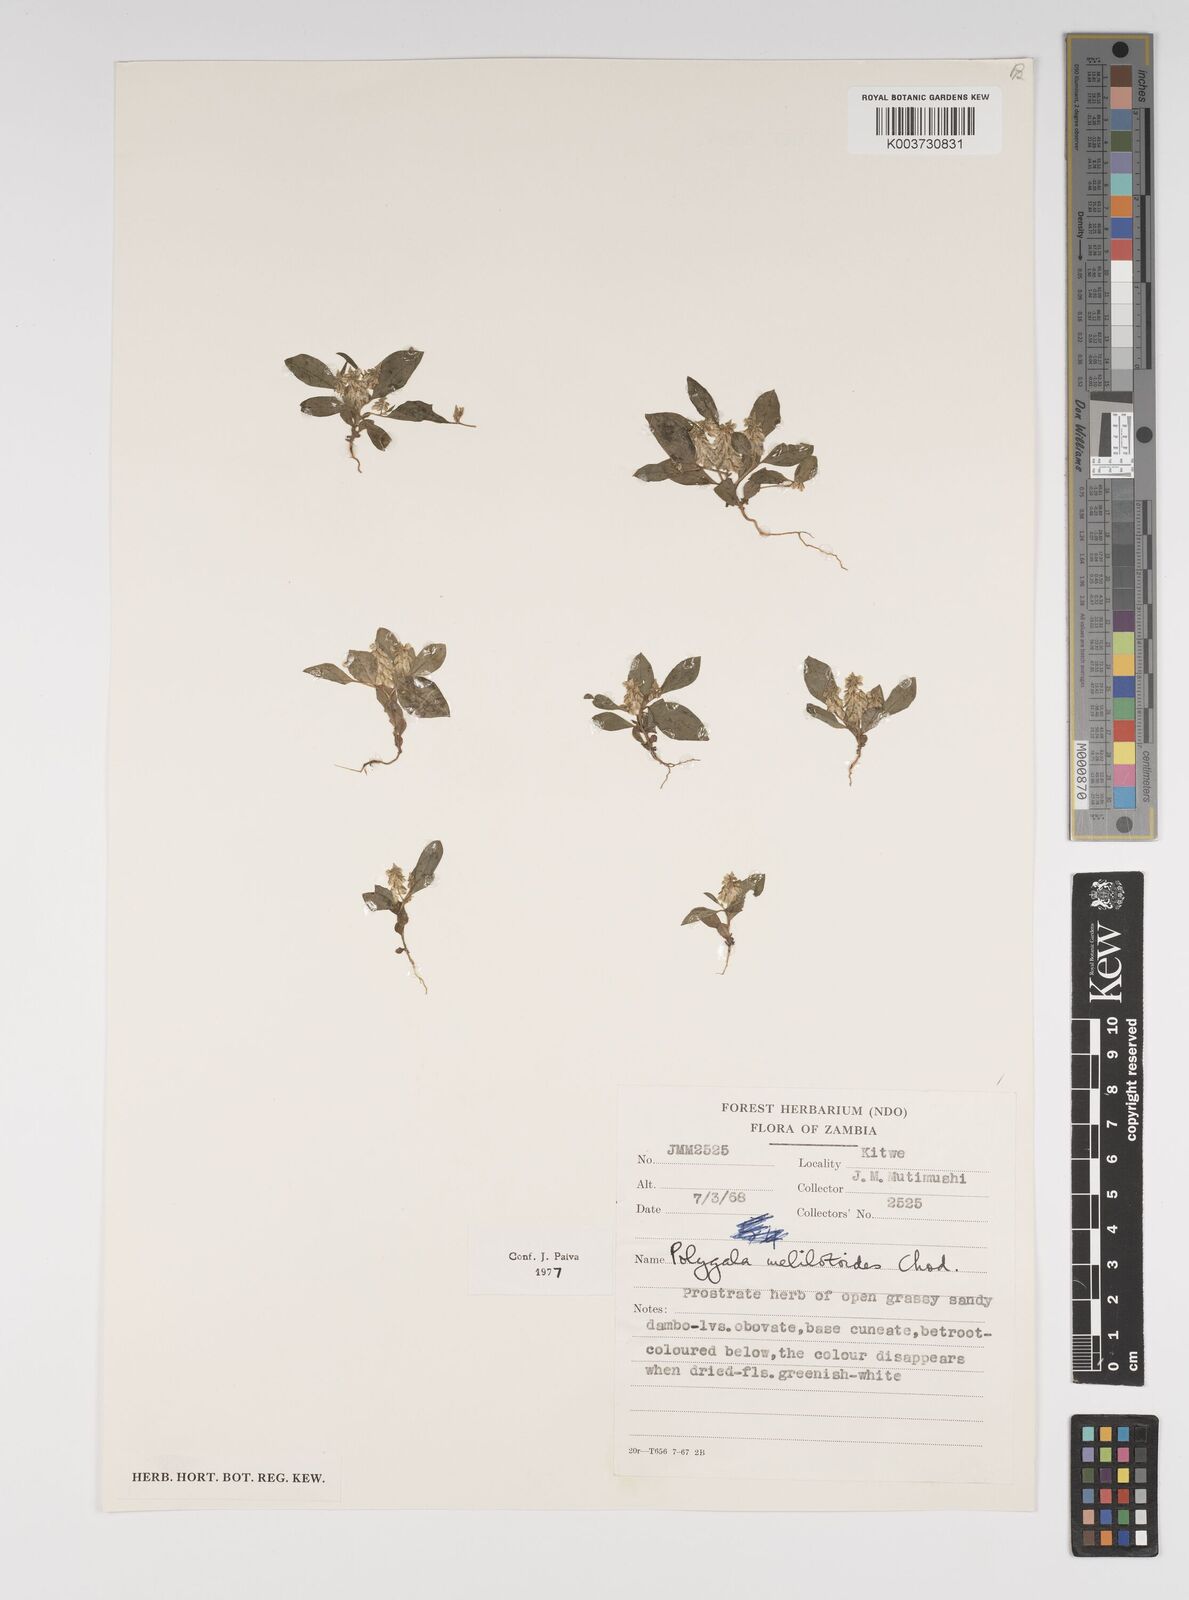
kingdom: Plantae
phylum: Tracheophyta
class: Magnoliopsida
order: Fabales
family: Polygalaceae
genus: Polygala
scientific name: Polygala melilotoides
